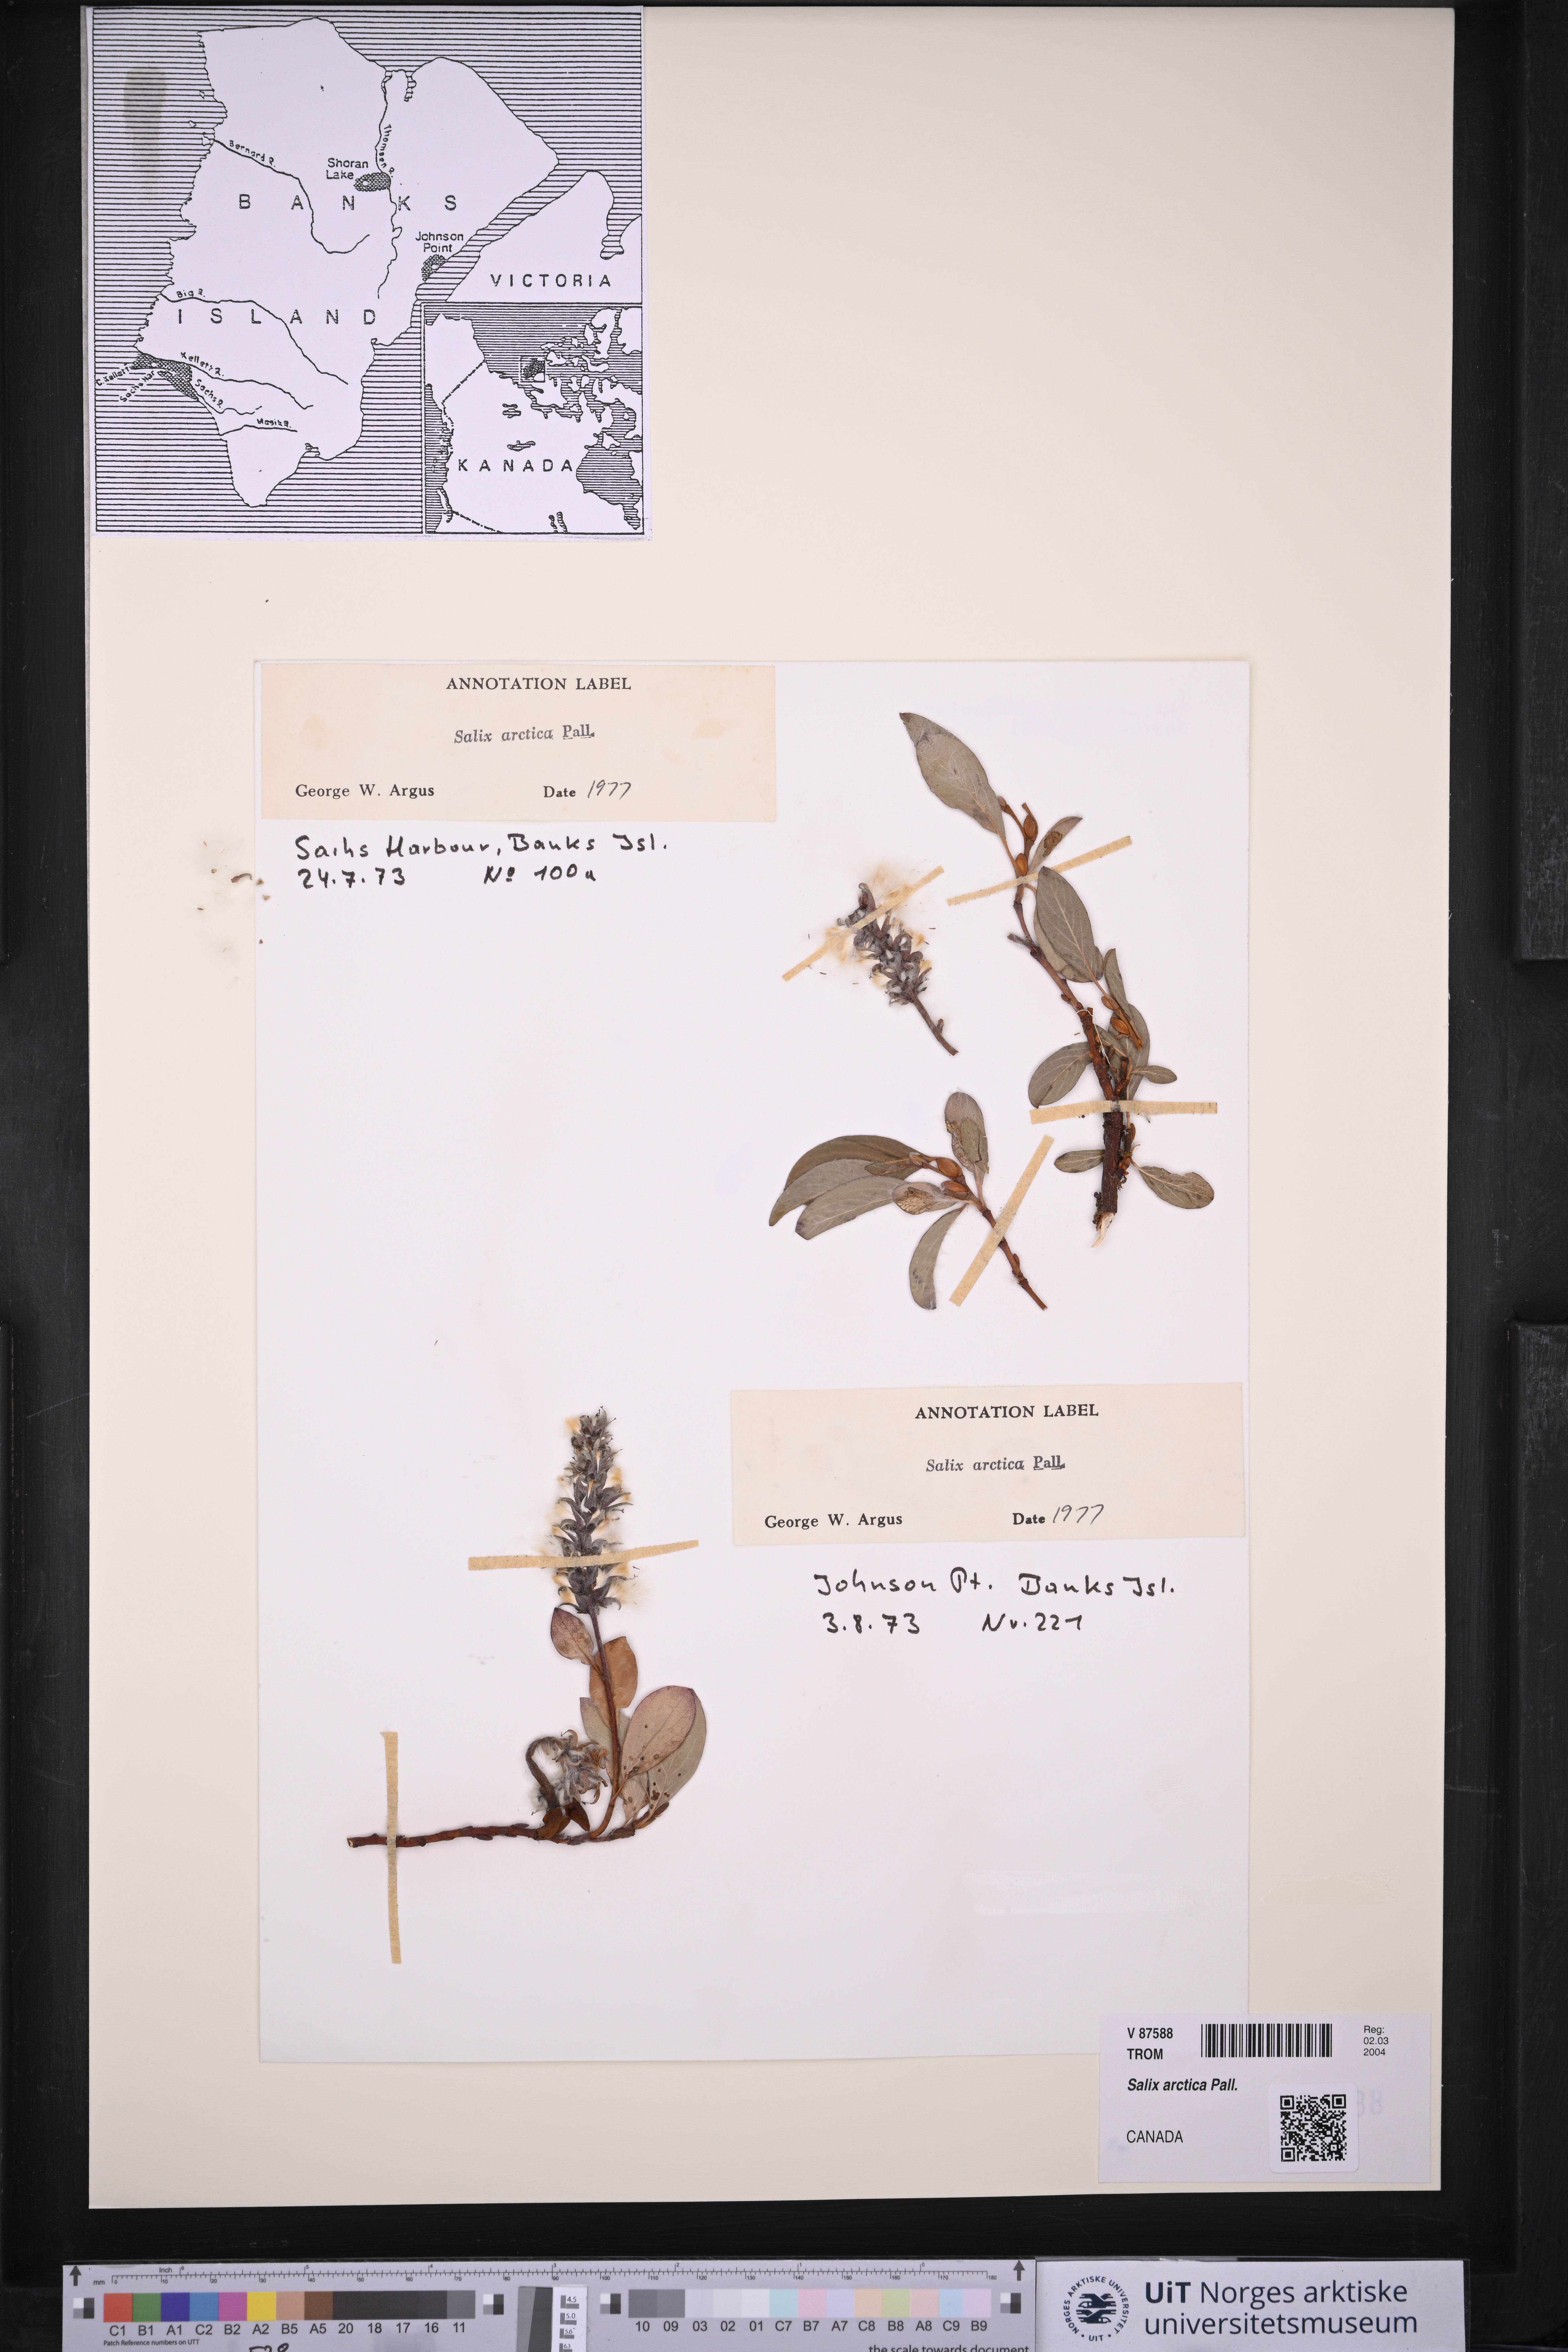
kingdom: Plantae
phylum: Tracheophyta
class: Magnoliopsida
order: Malpighiales
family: Salicaceae
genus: Salix
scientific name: Salix arctica
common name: Arctic willow
